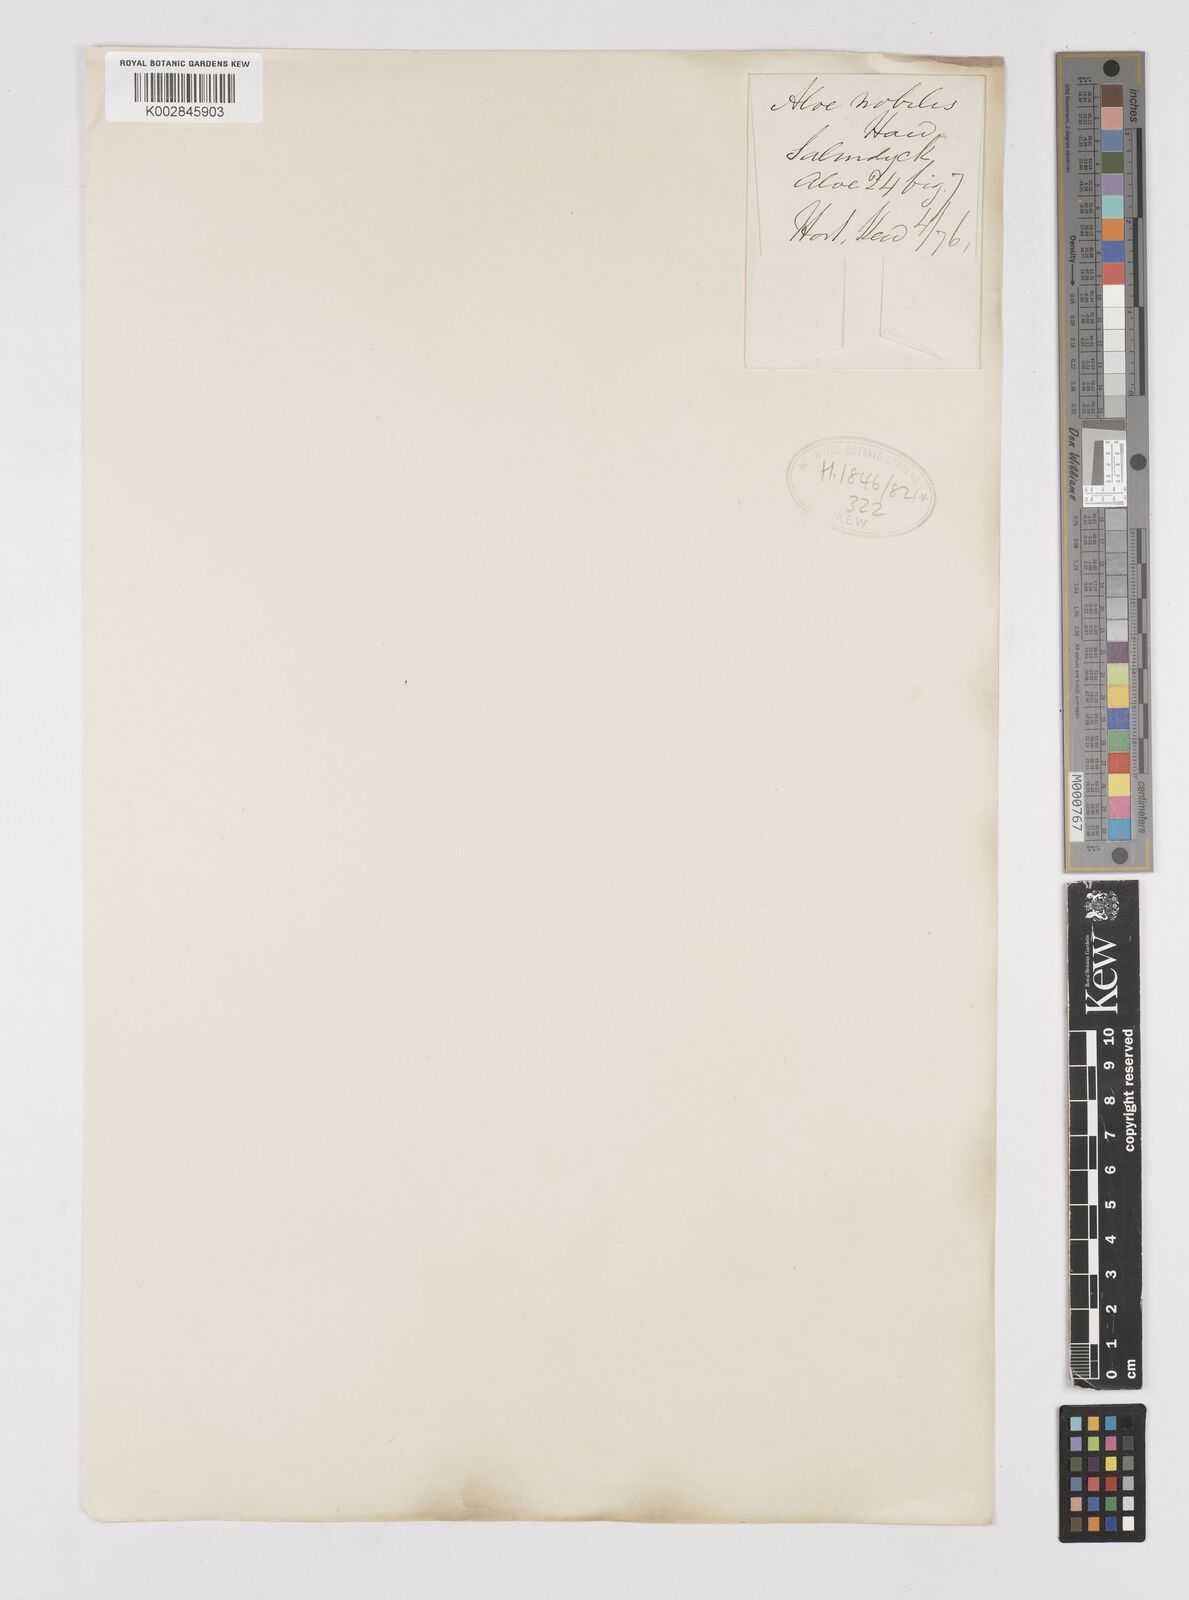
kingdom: Plantae
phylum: Tracheophyta
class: Liliopsida
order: Asparagales
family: Asphodelaceae
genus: Aloe
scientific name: Aloe nobilis
